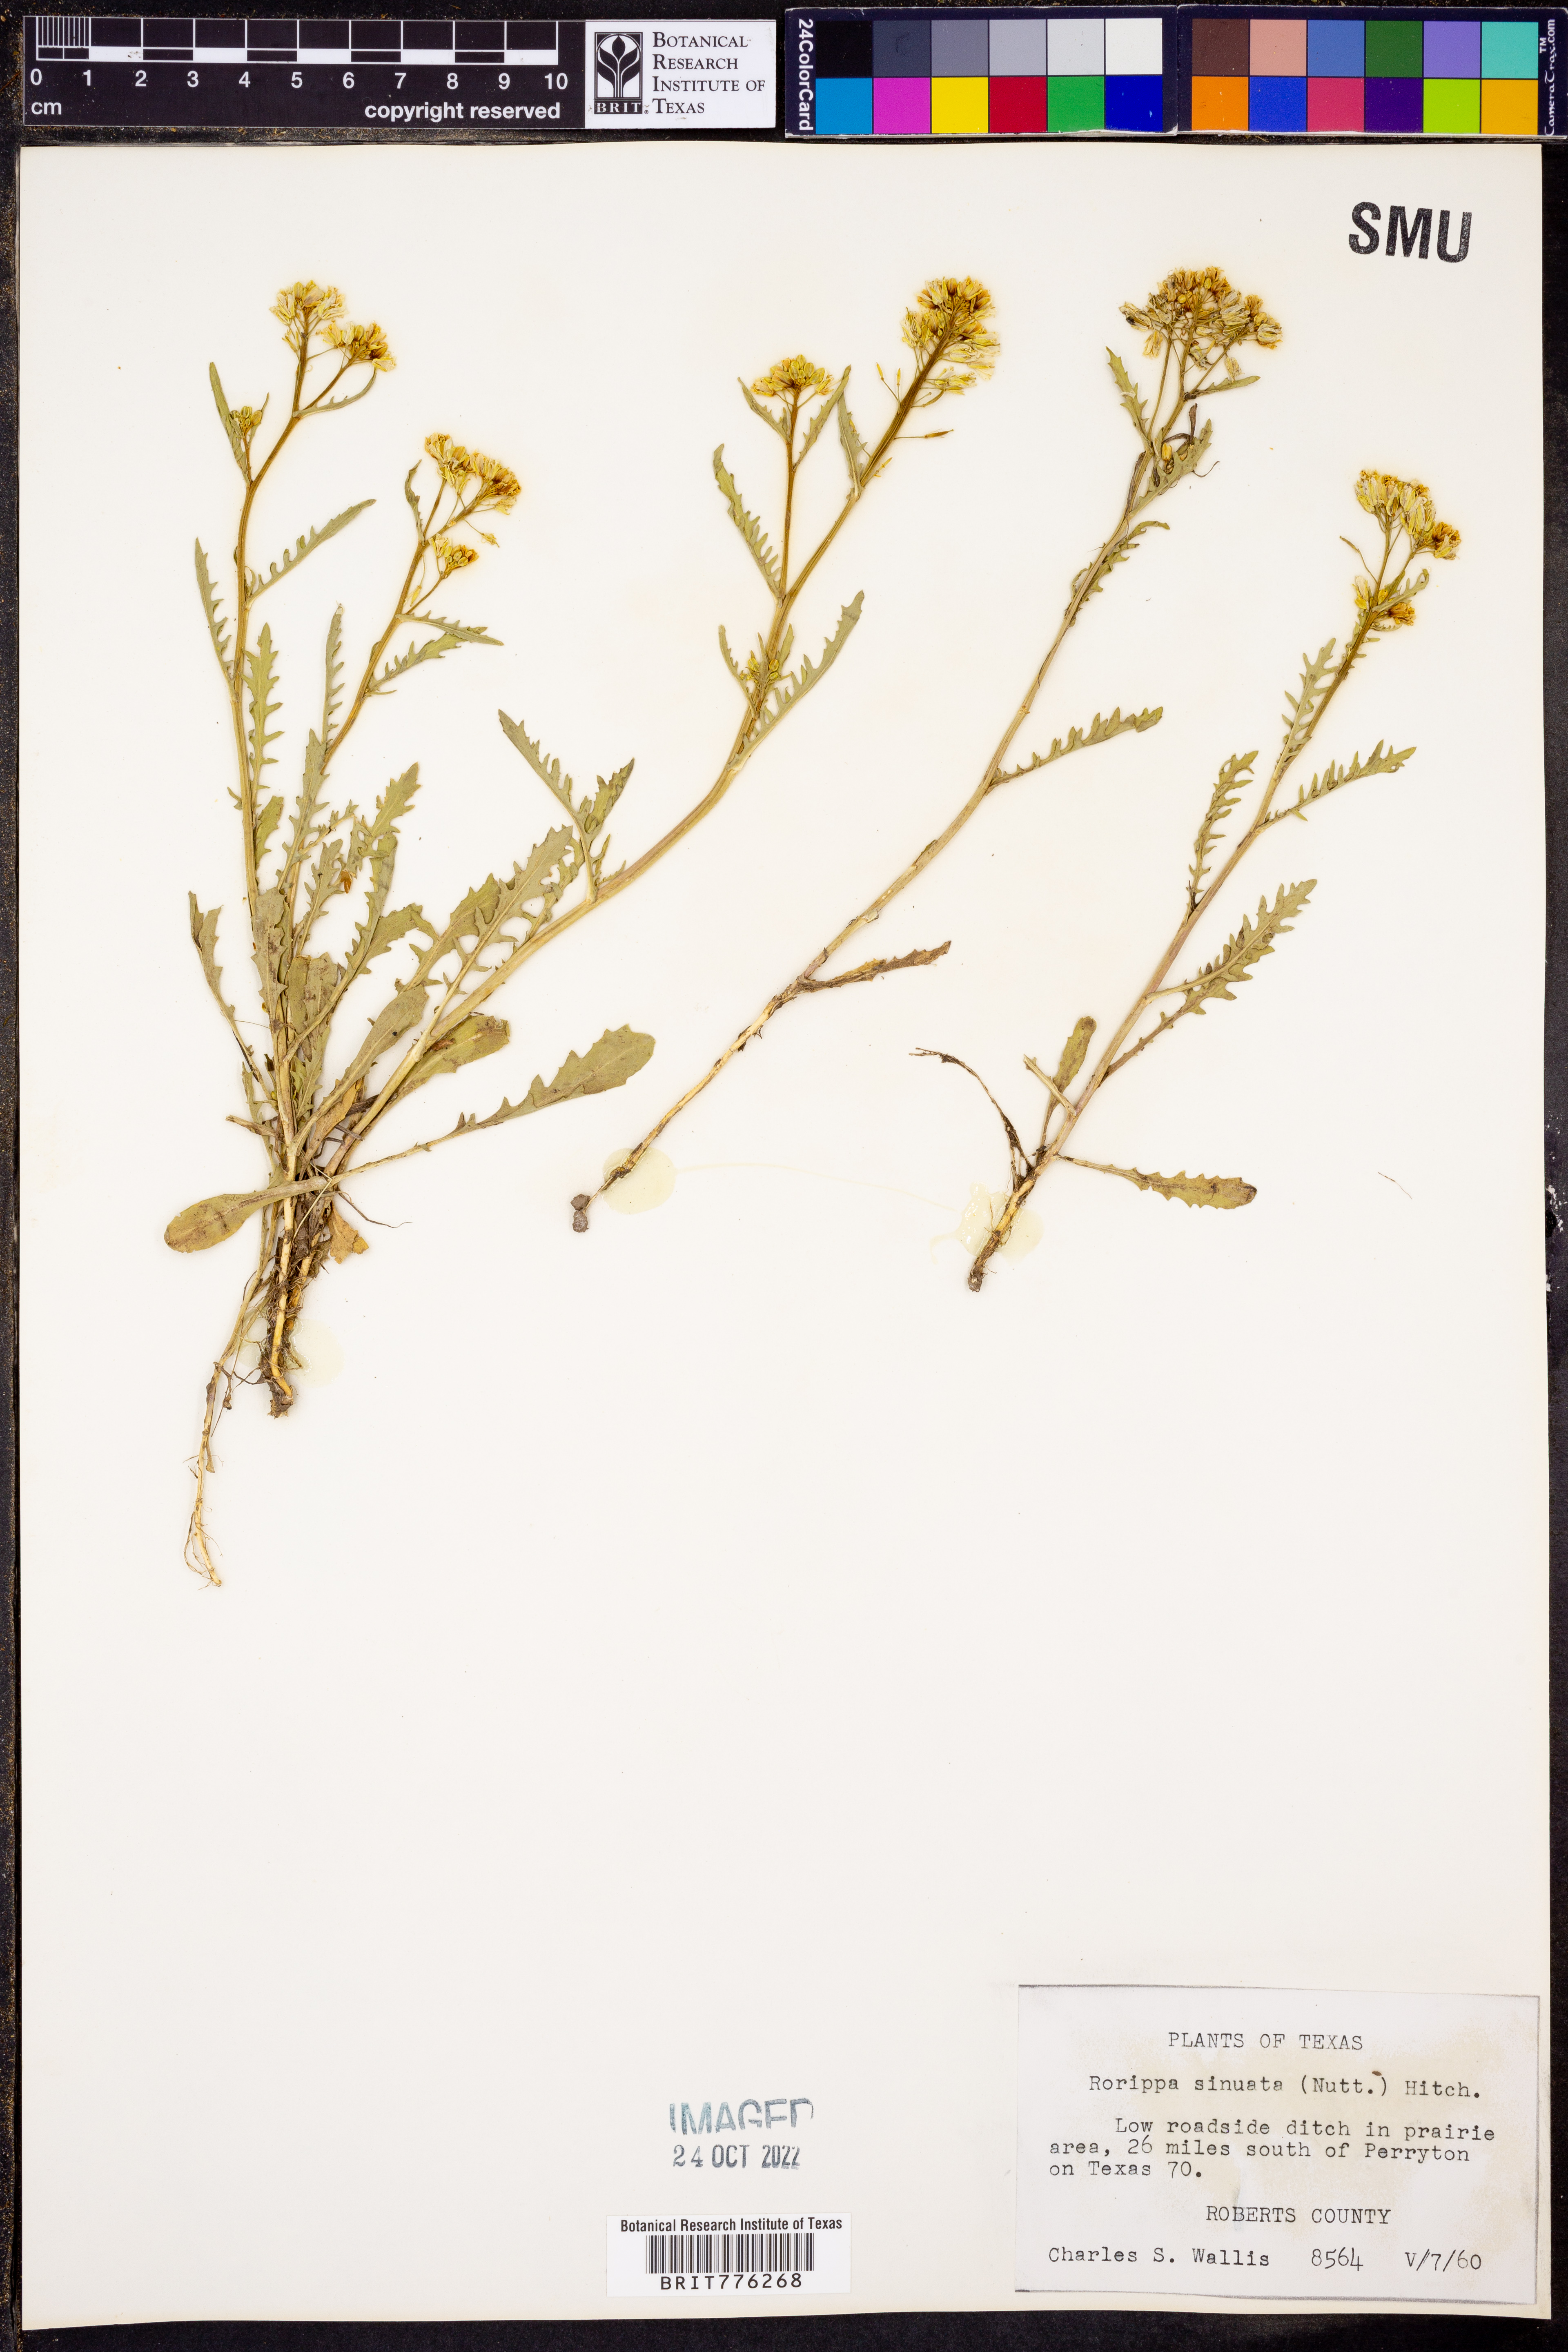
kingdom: Plantae
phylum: Tracheophyta
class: Magnoliopsida
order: Brassicales
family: Brassicaceae
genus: Rorippa
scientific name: Rorippa sinuata
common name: Spread yellow cress
